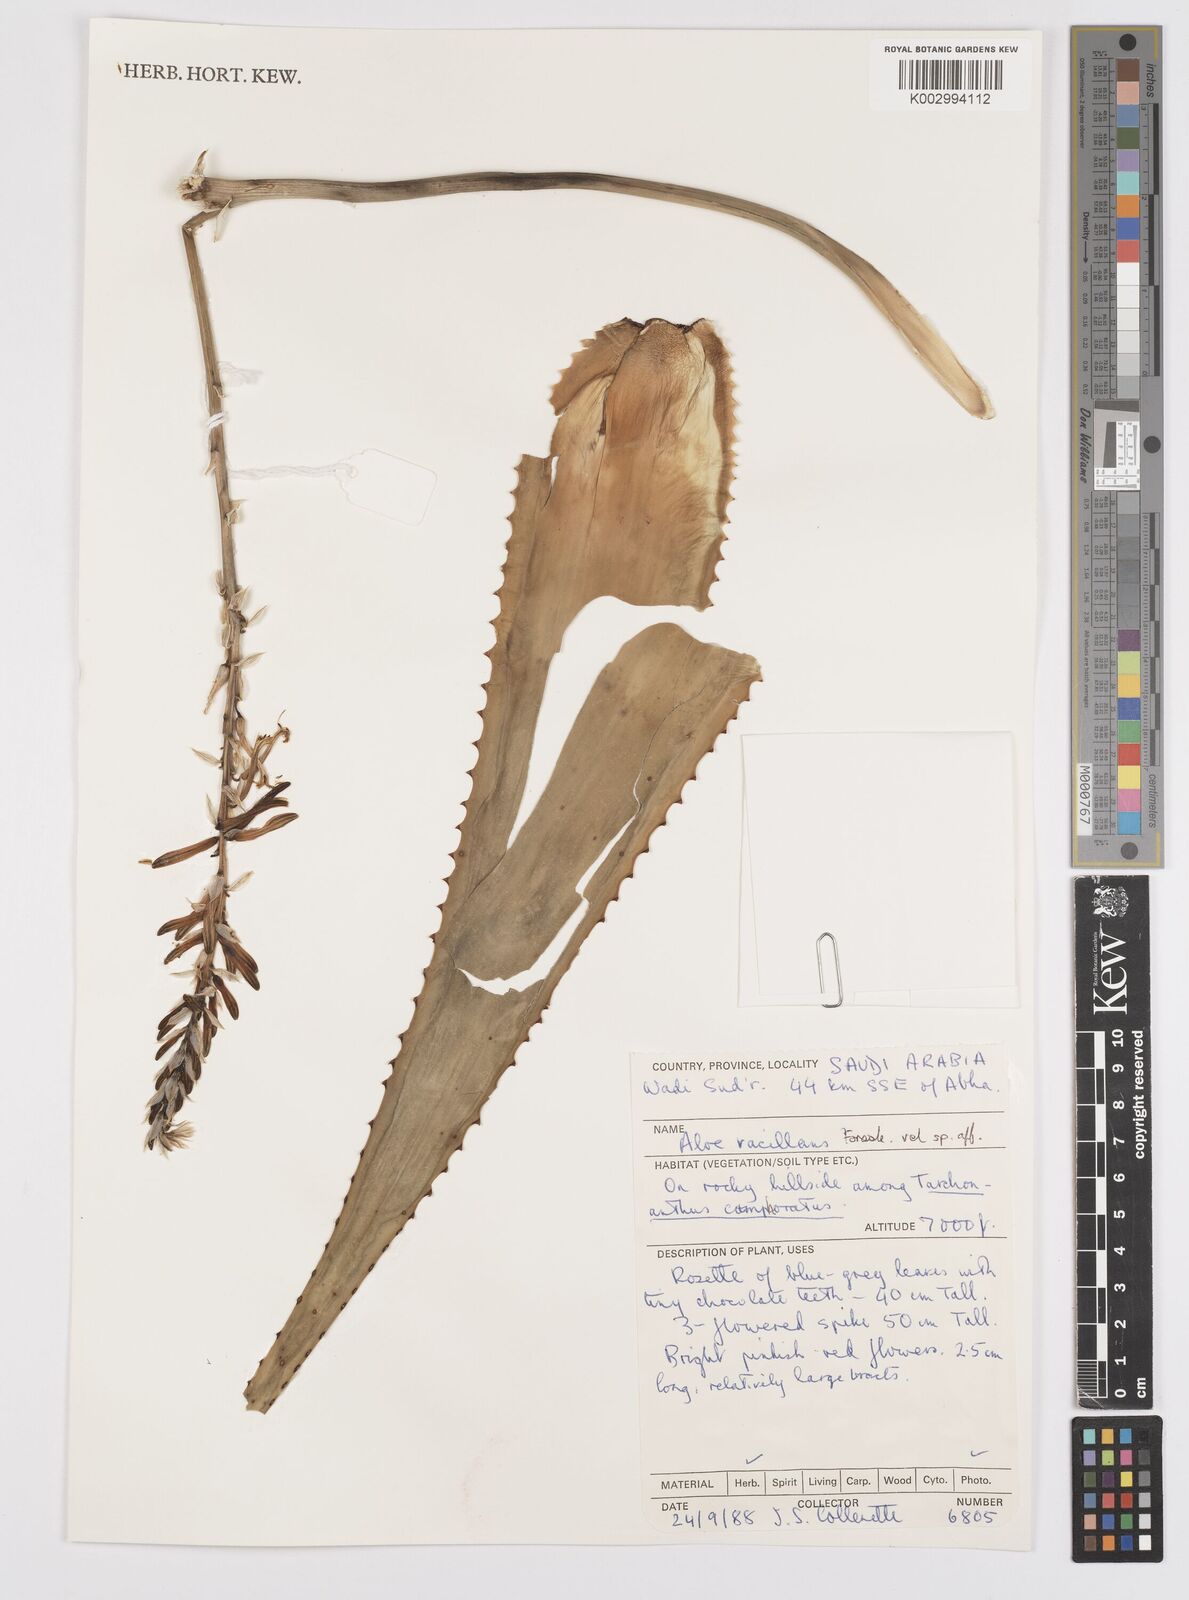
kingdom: Plantae
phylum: Tracheophyta
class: Liliopsida
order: Asparagales
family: Asphodelaceae
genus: Aloe
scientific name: Aloe vacillans
